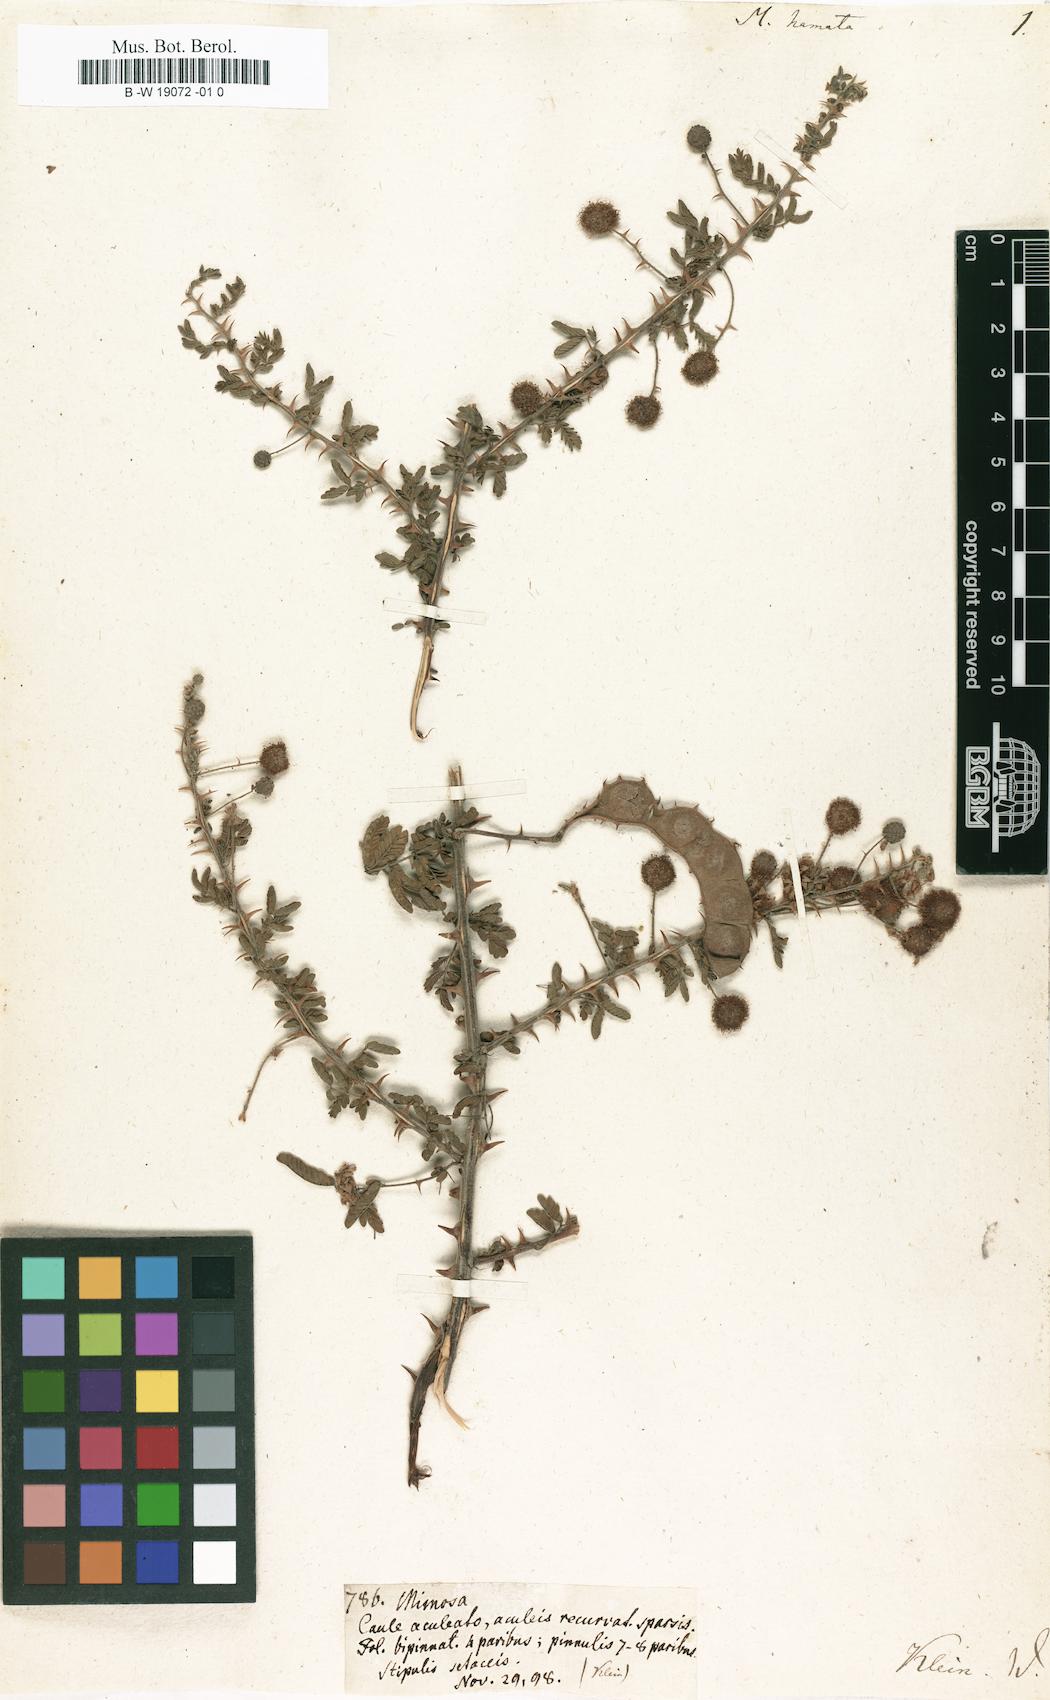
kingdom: Plantae
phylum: Tracheophyta
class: Magnoliopsida
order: Fabales
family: Fabaceae
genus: Mimosa
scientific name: Mimosa hamata
